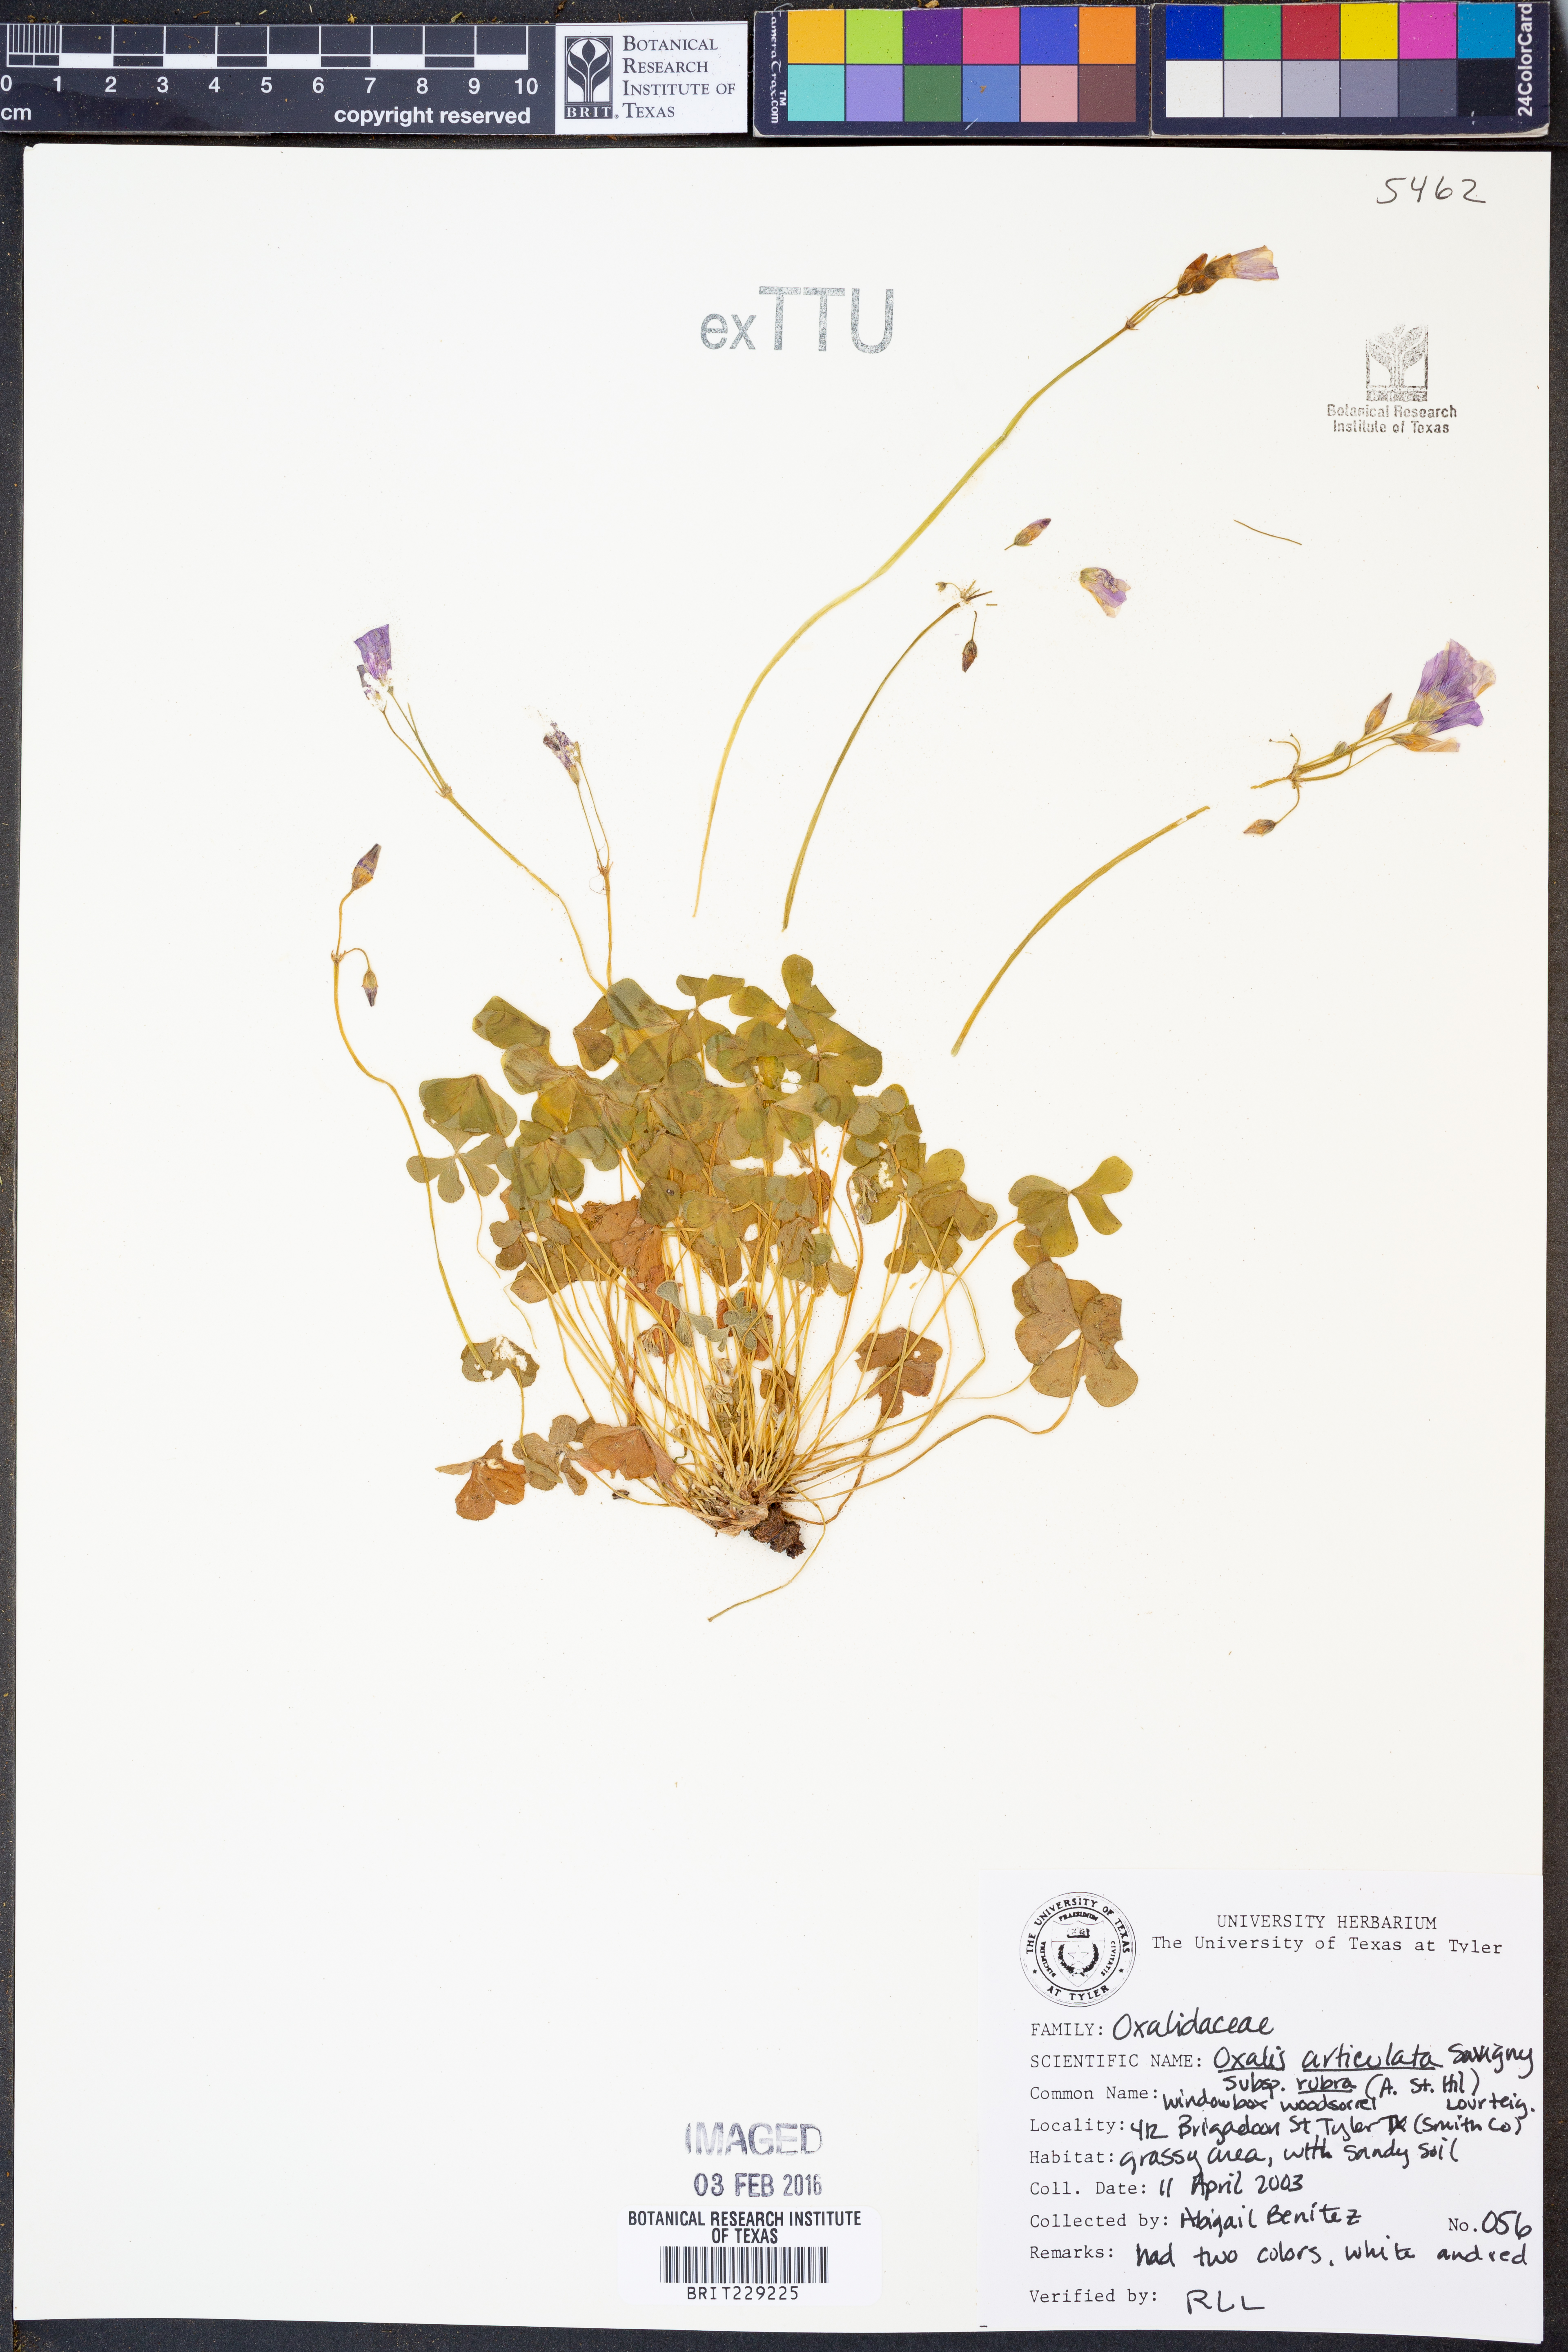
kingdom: Plantae
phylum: Tracheophyta
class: Magnoliopsida
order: Oxalidales
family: Oxalidaceae
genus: Oxalis
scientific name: Oxalis articulata
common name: Pink-sorrel
